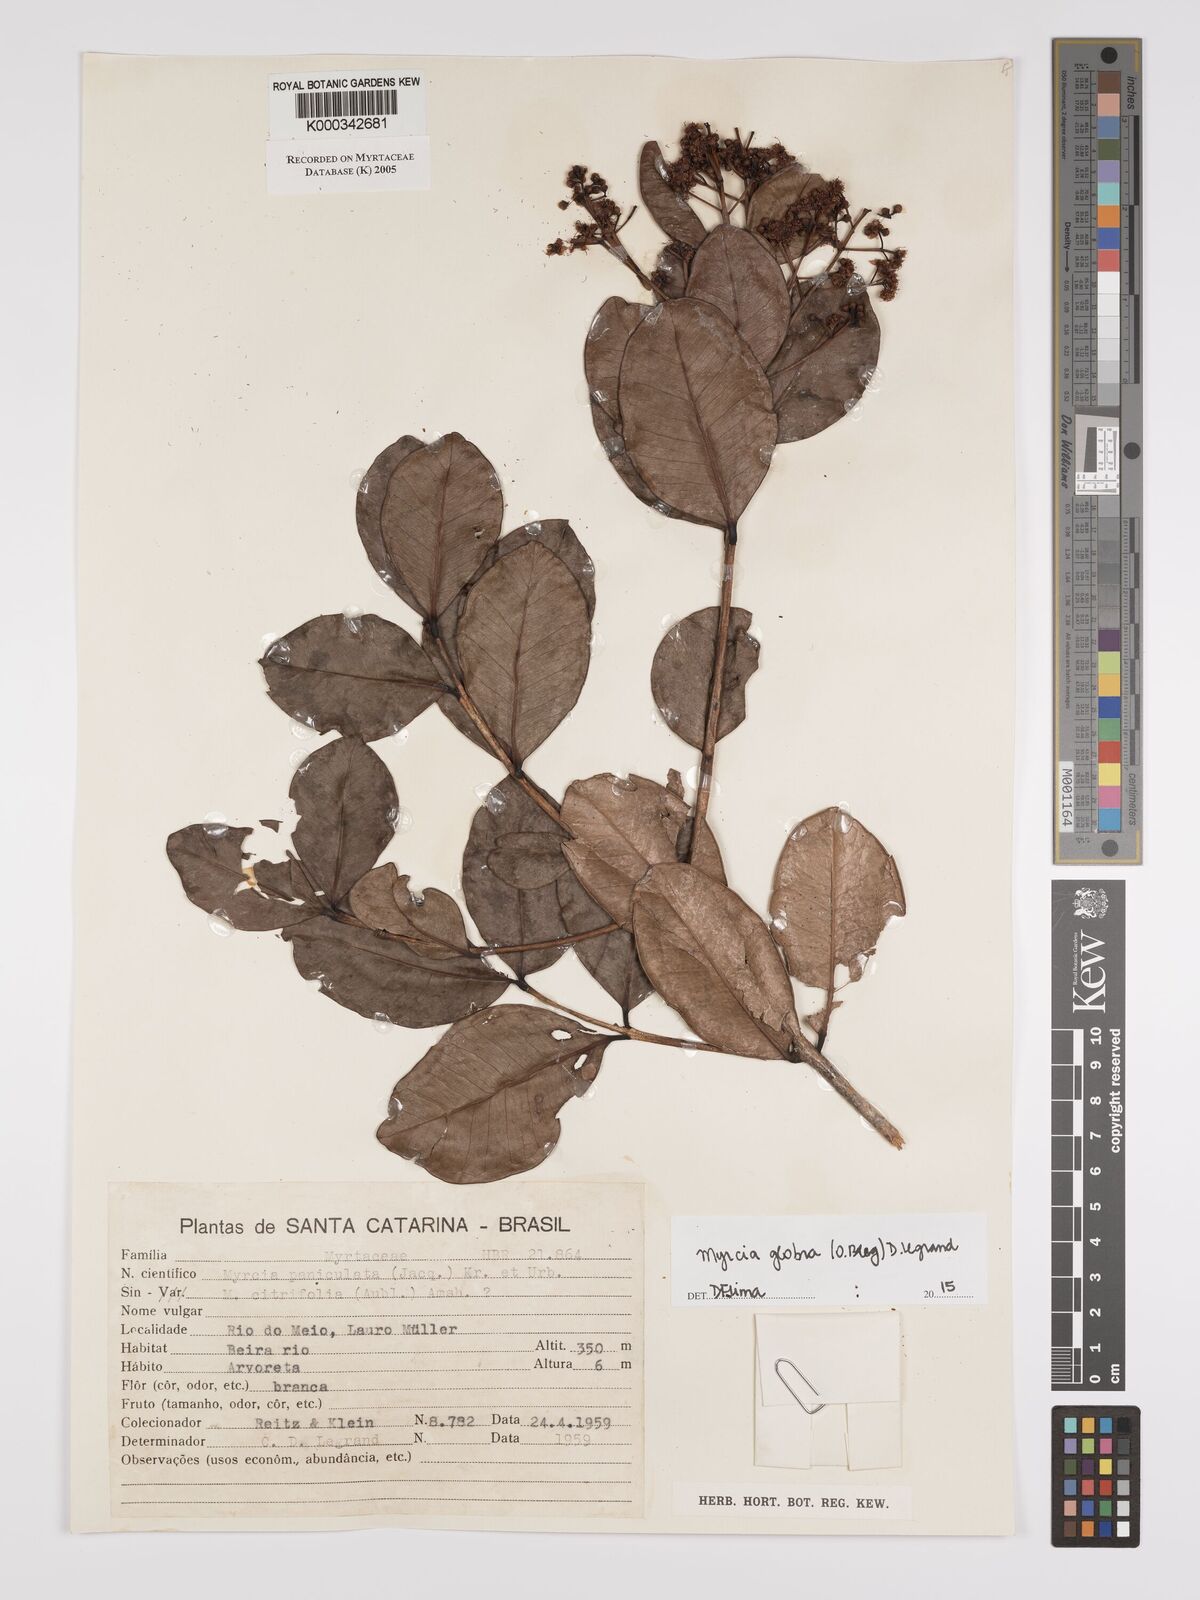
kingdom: Plantae
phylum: Tracheophyta
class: Magnoliopsida
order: Myrtales
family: Myrtaceae
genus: Myrcia
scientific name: Myrcia guianensis
